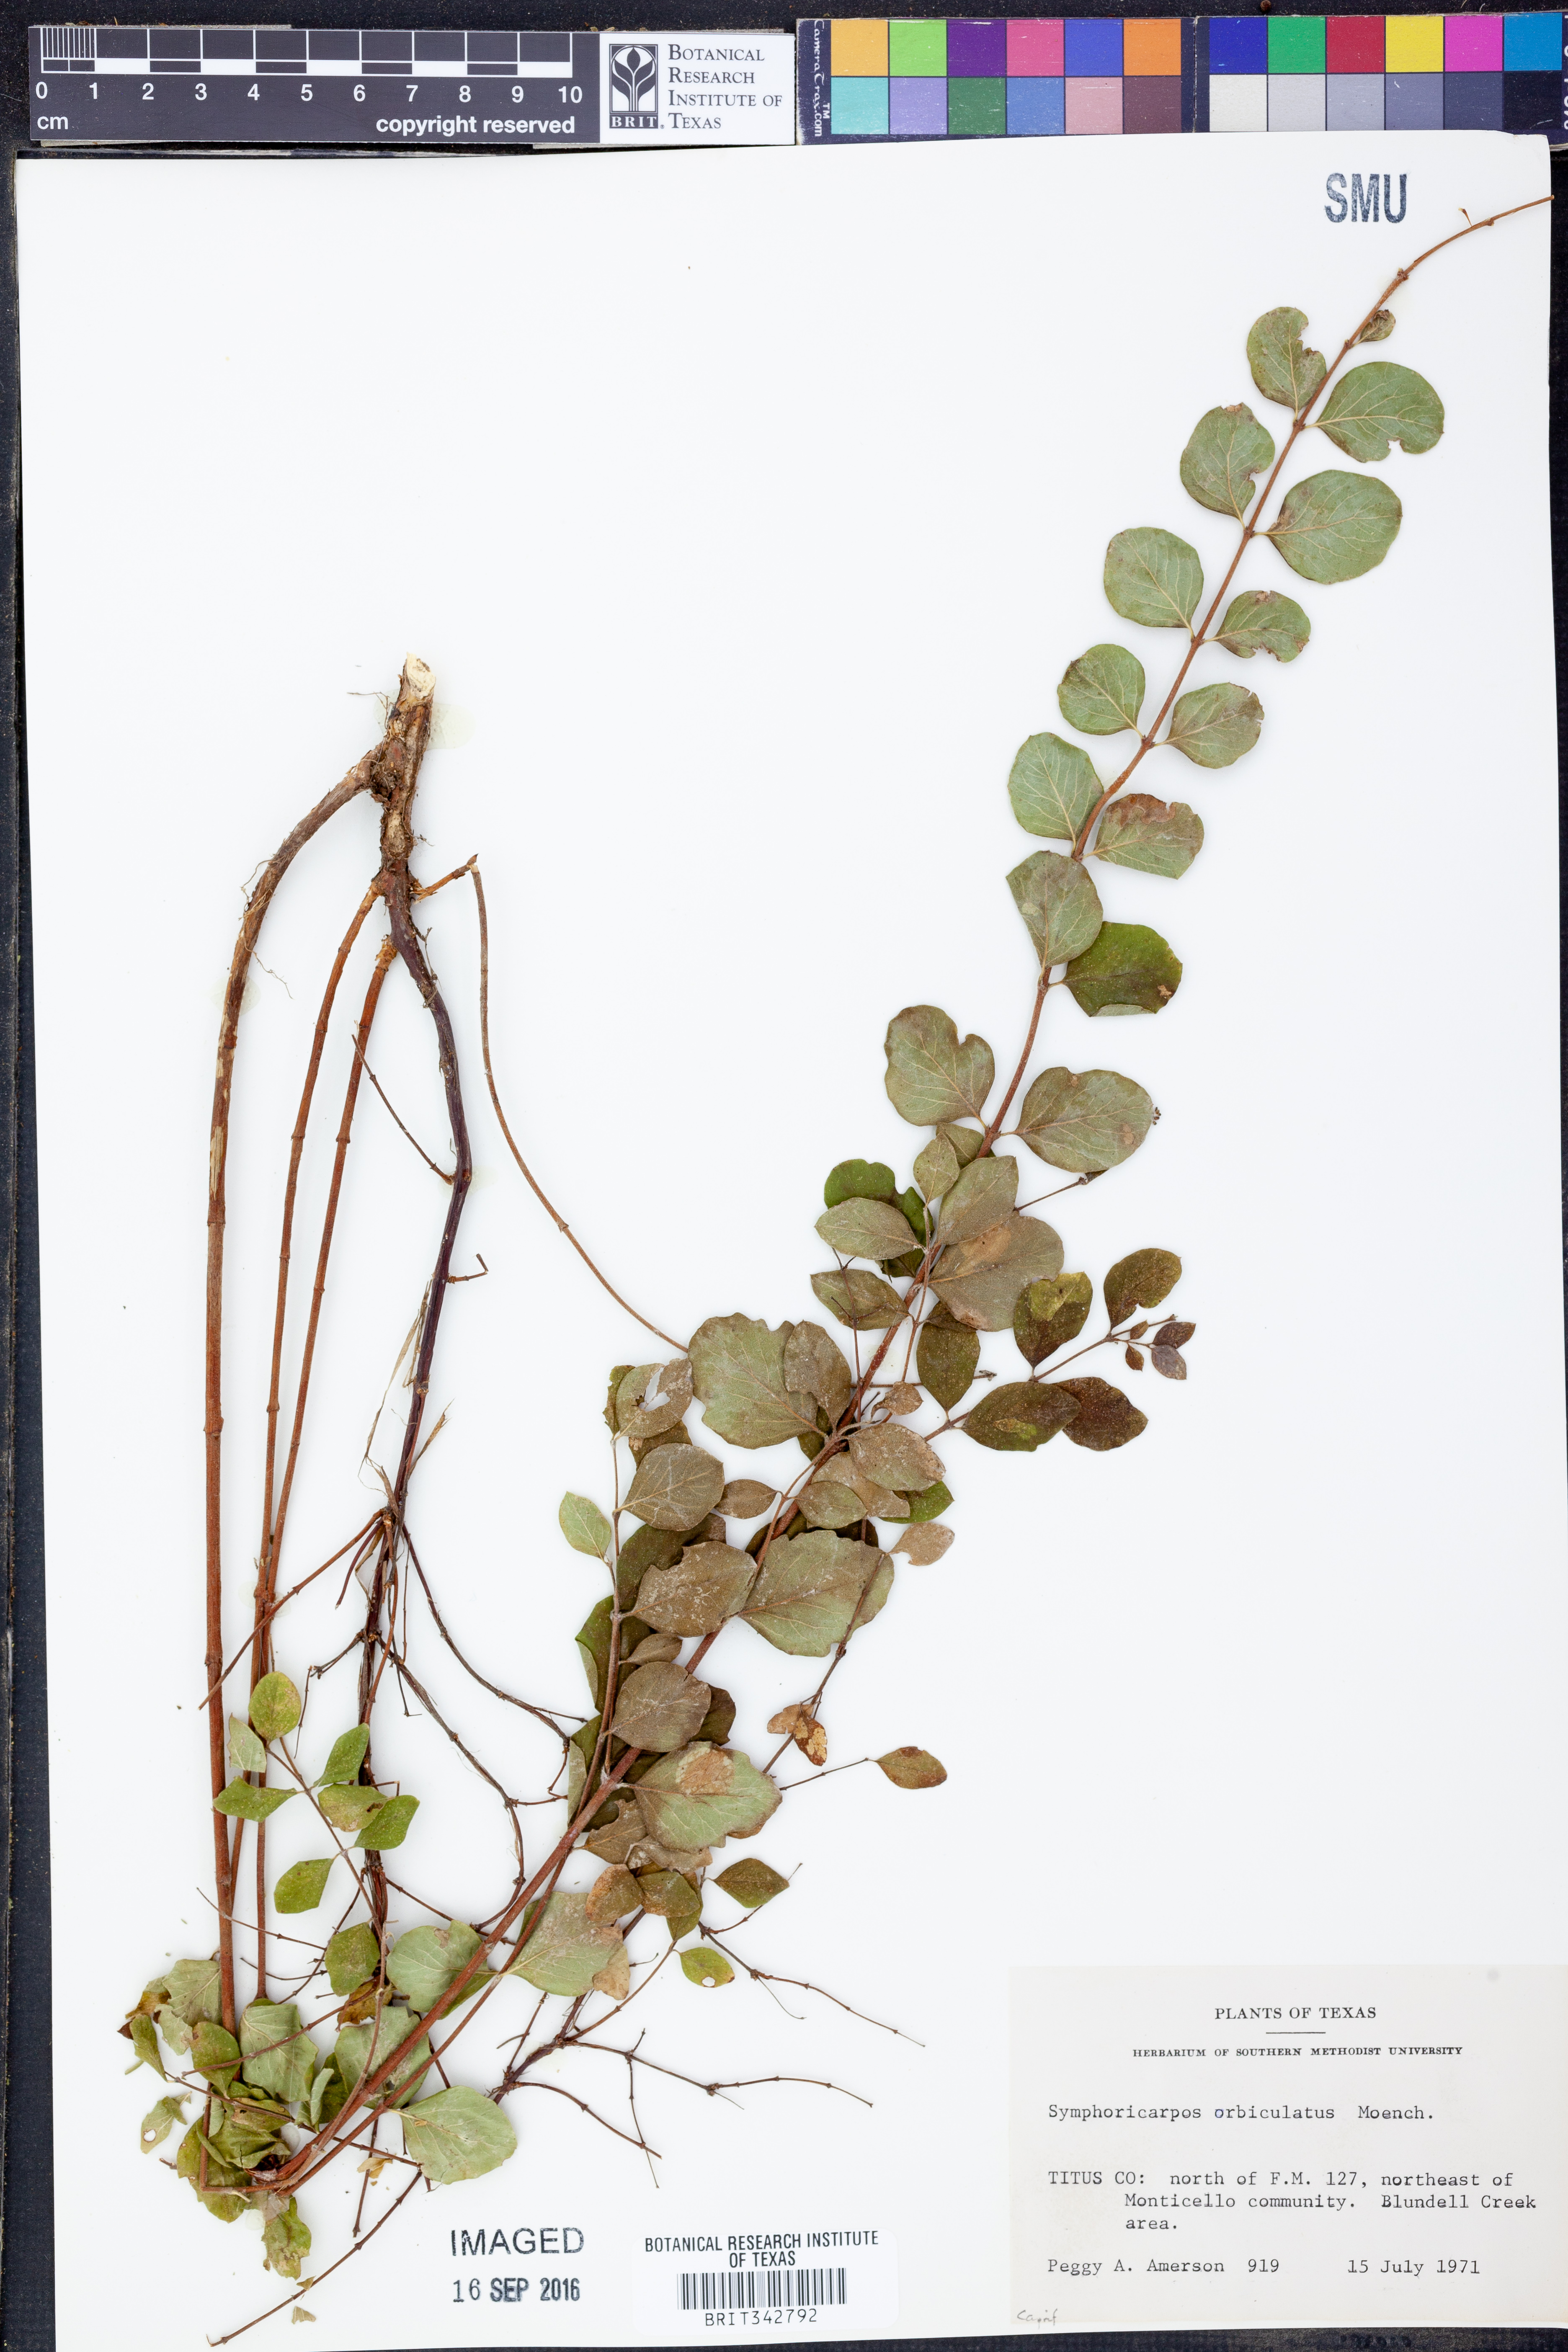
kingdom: Plantae
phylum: Tracheophyta
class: Magnoliopsida
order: Dipsacales
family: Caprifoliaceae
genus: Symphoricarpos
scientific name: Symphoricarpos orbiculatus
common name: Coralberry
